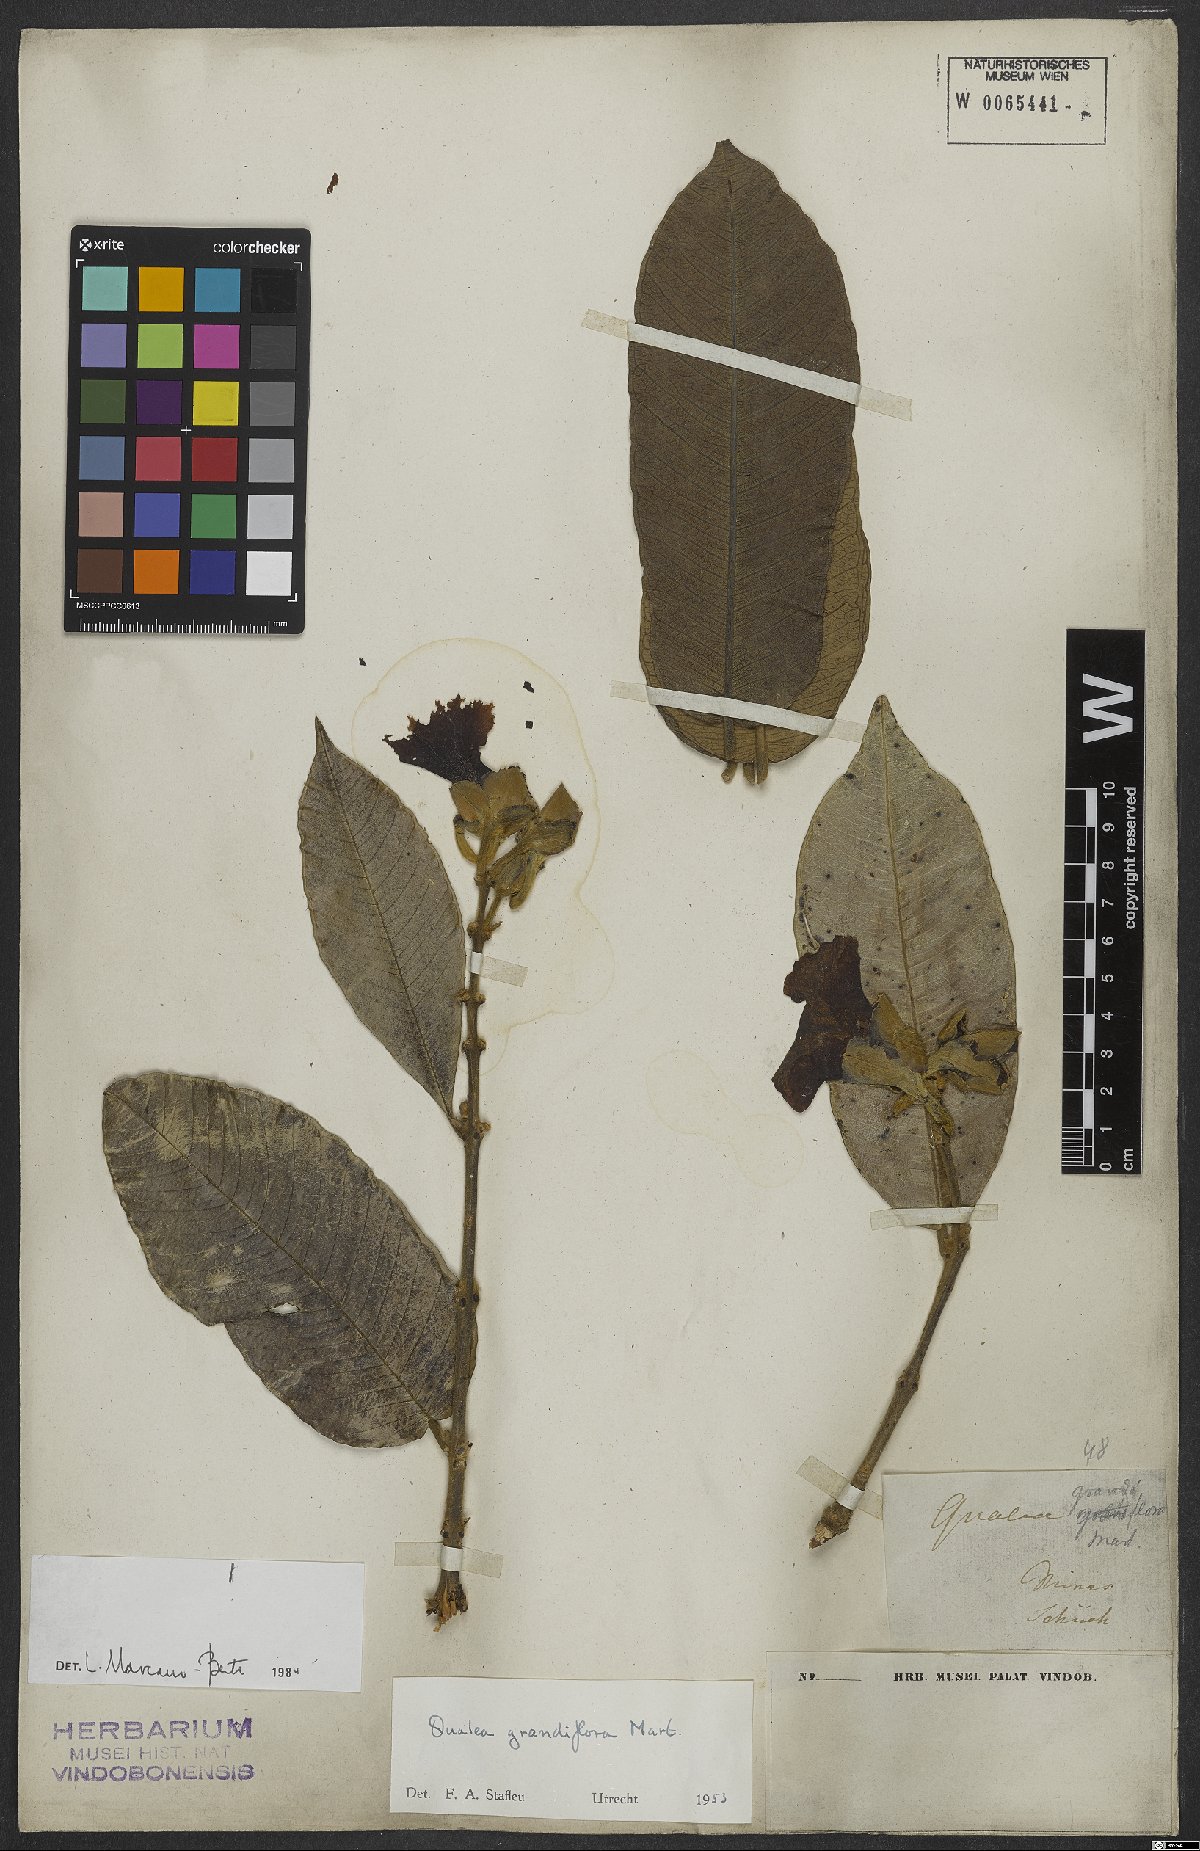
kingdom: Plantae
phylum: Tracheophyta
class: Magnoliopsida
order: Myrtales
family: Vochysiaceae
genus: Qualea
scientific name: Qualea grandiflora
